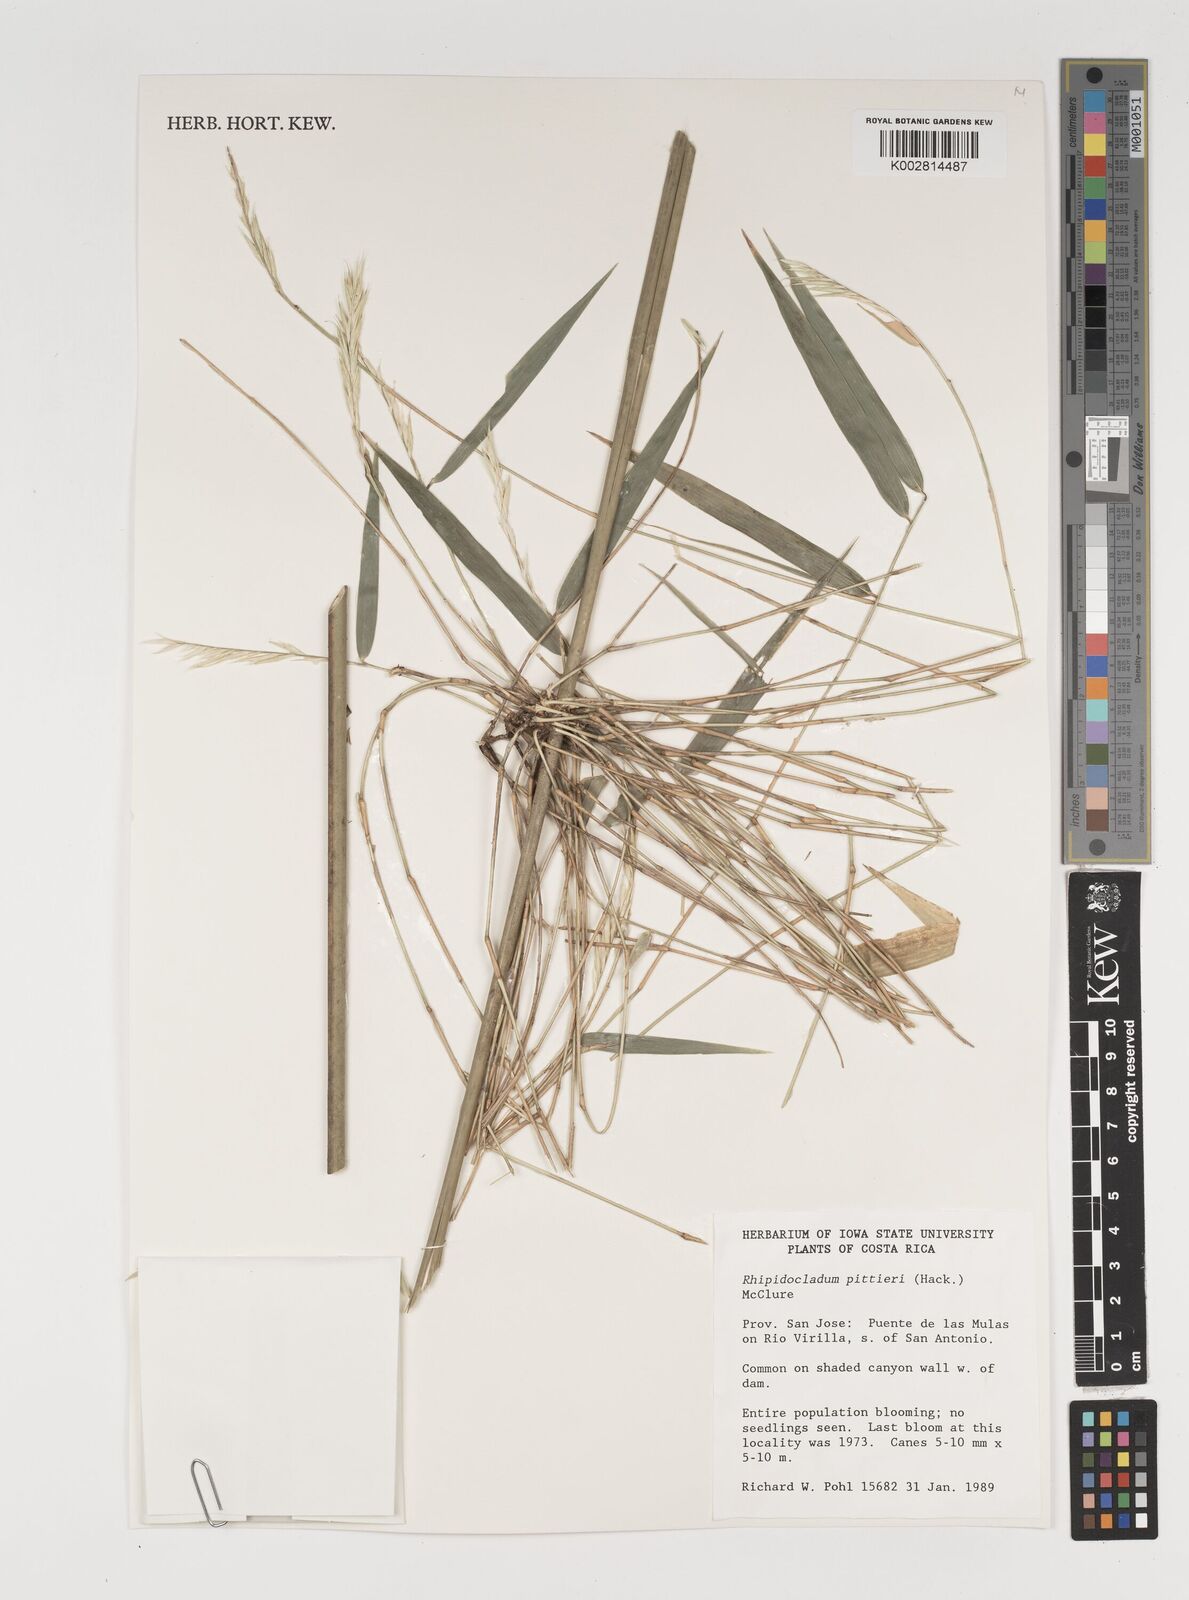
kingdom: Plantae
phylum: Tracheophyta
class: Liliopsida
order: Poales
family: Poaceae
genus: Rhipidocladum
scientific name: Rhipidocladum pittieri
